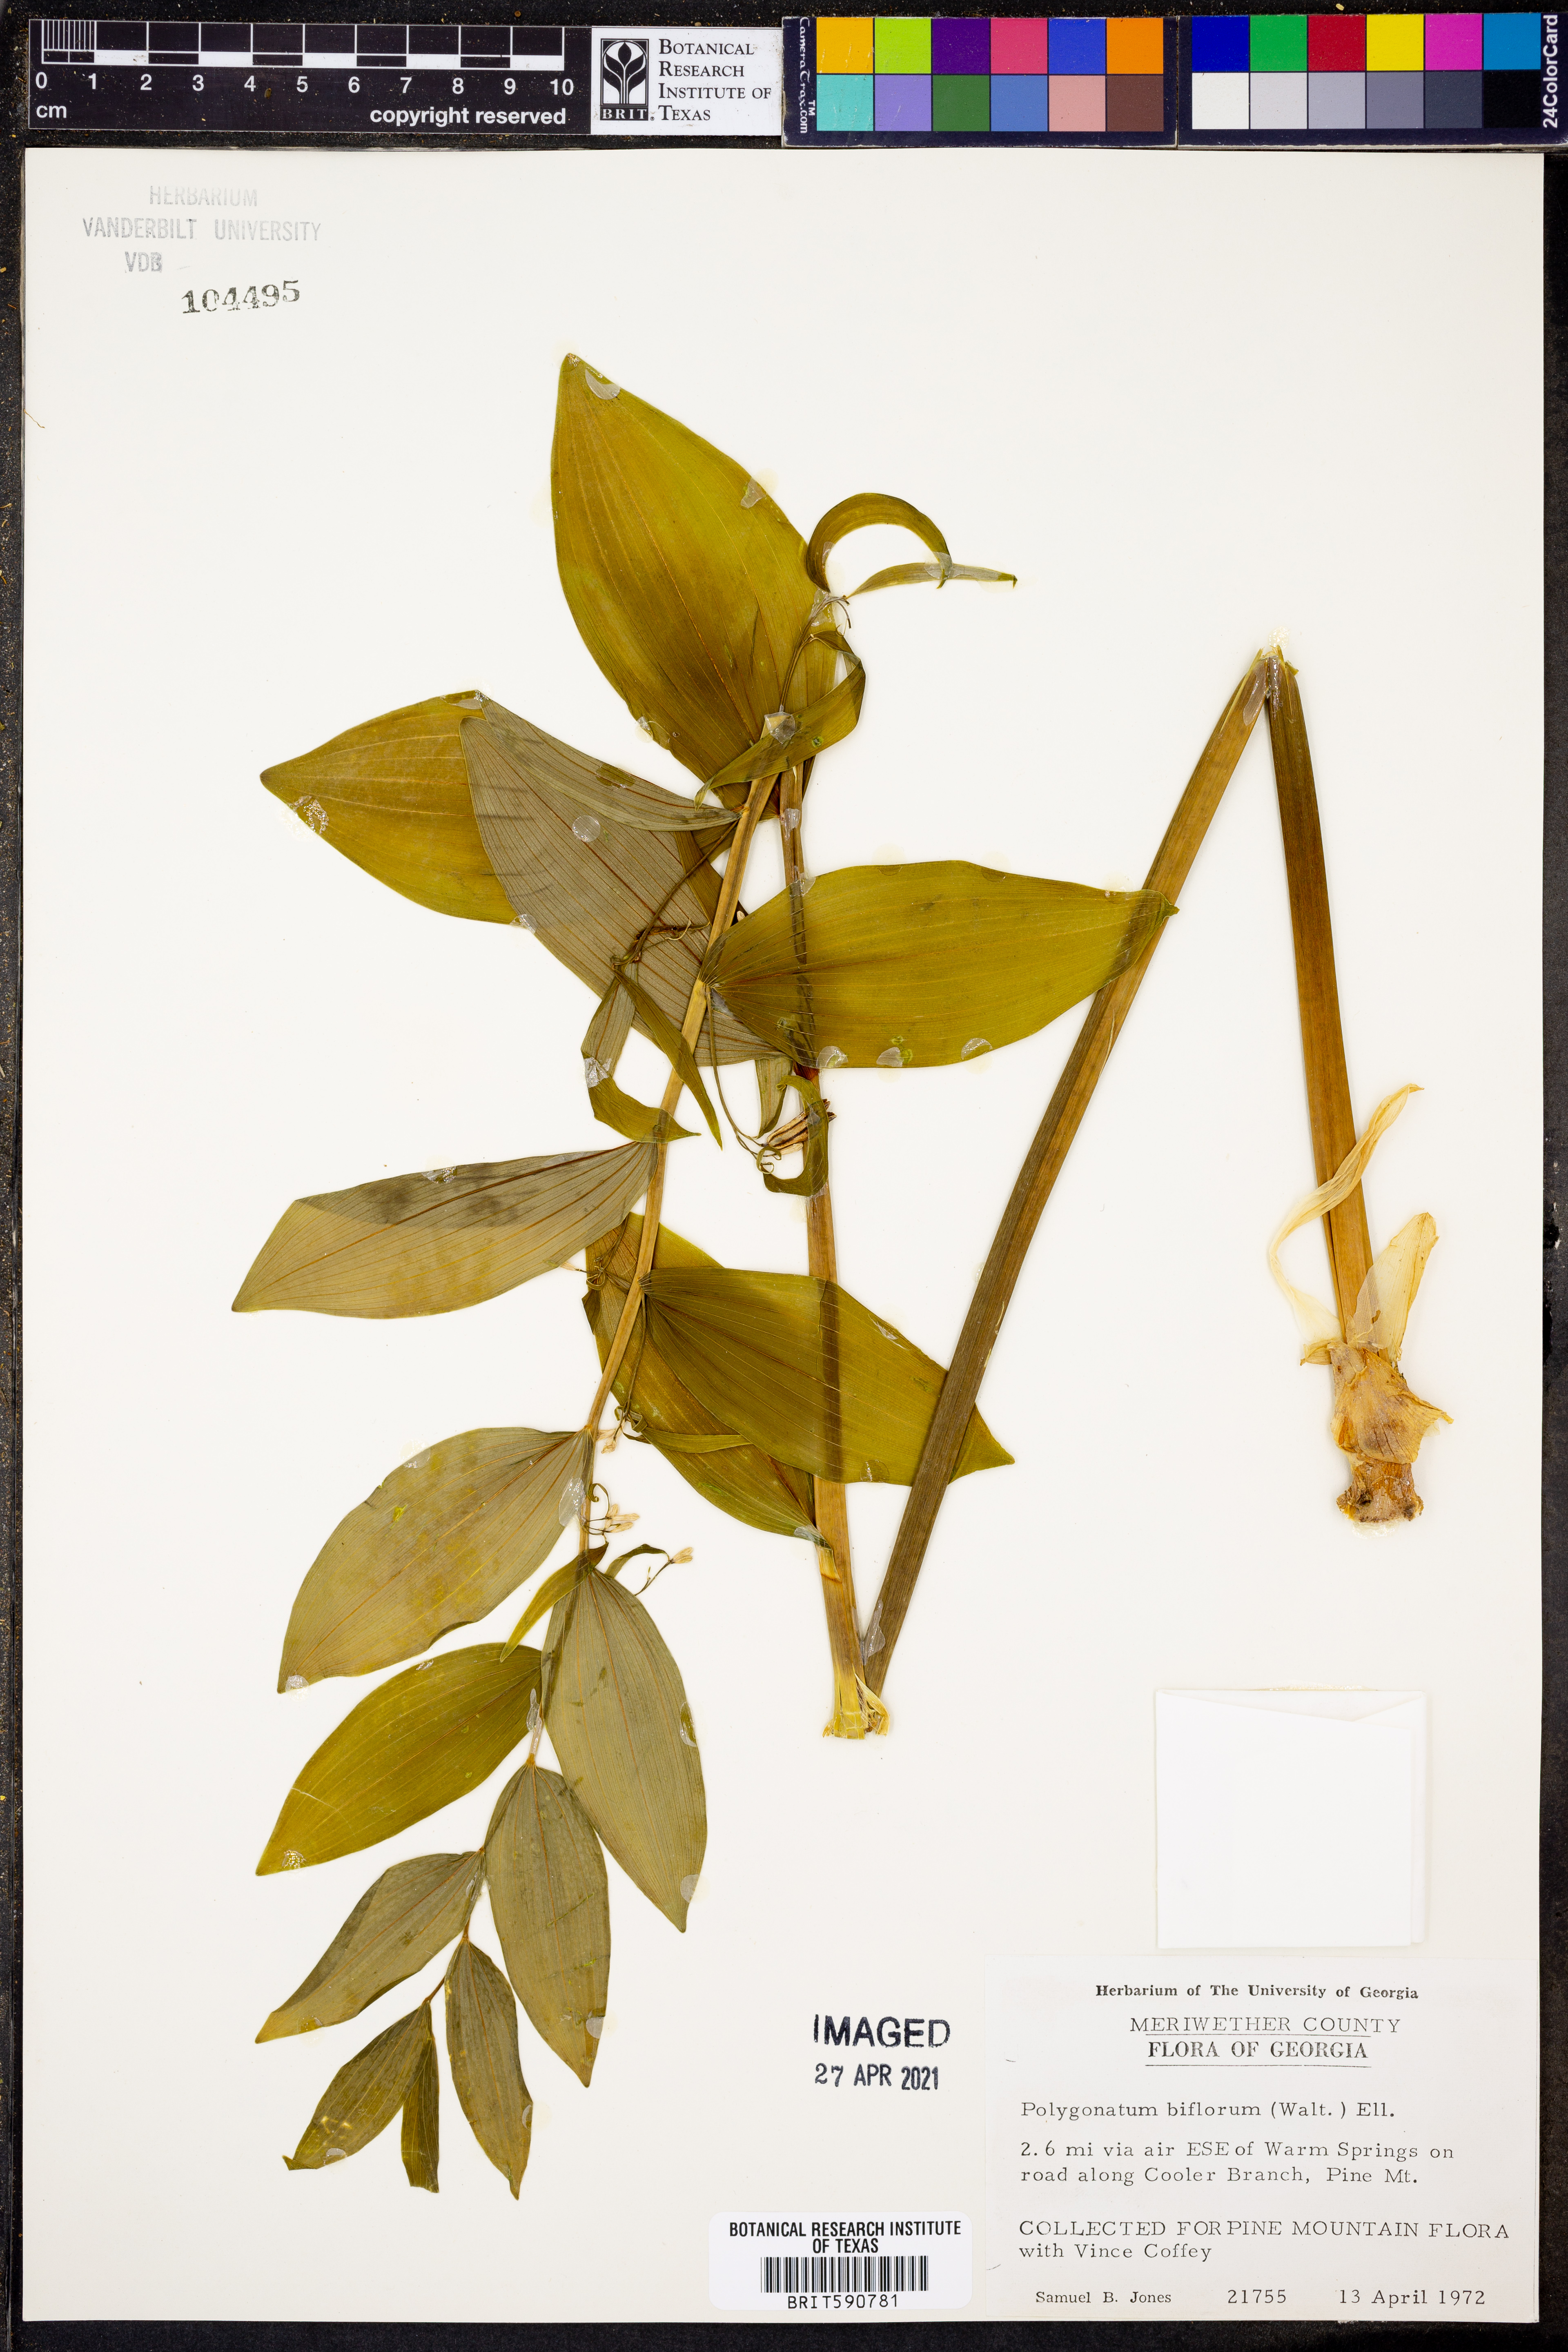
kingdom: Plantae
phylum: Tracheophyta
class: Liliopsida
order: Asparagales
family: Asparagaceae
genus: Polygonatum
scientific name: Polygonatum biflorum
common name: American solomon's-seal
